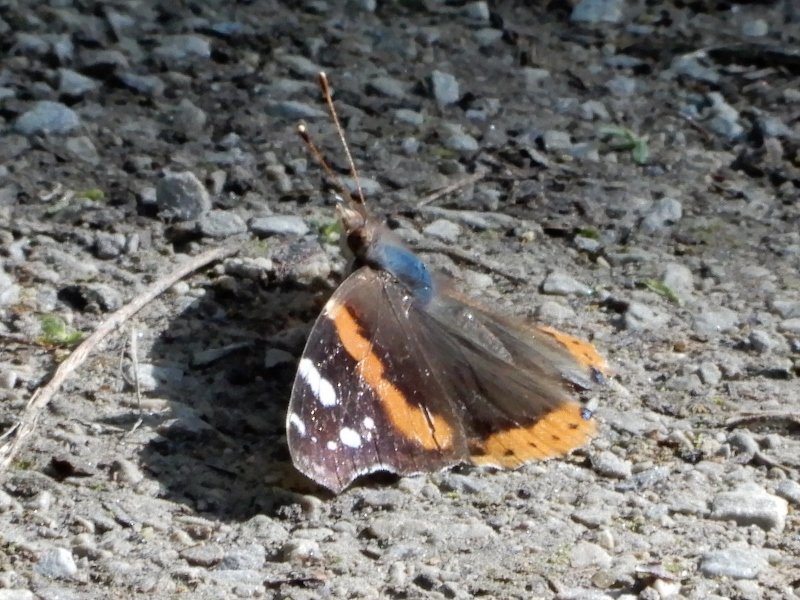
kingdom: Animalia
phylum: Arthropoda
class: Insecta
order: Lepidoptera
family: Nymphalidae
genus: Vanessa
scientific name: Vanessa atalanta
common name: Red Admiral
